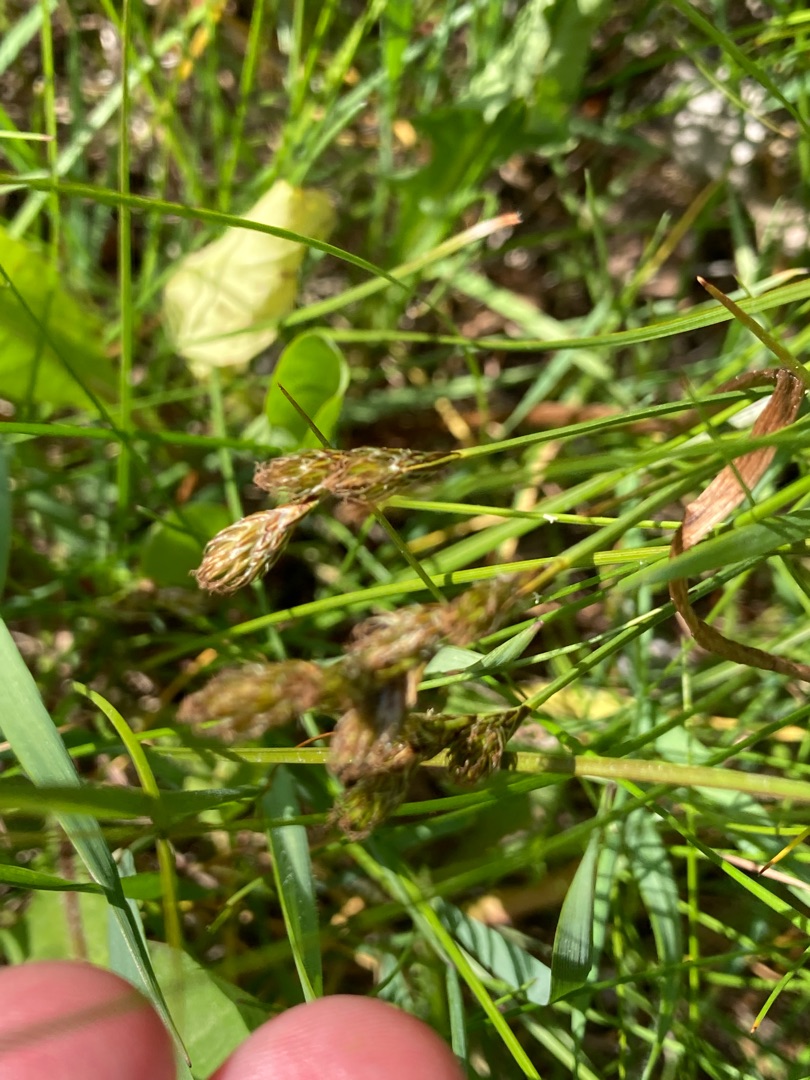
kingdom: Plantae
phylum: Tracheophyta
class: Liliopsida
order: Poales
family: Cyperaceae
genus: Carex
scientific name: Carex leporina
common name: Hare-star
